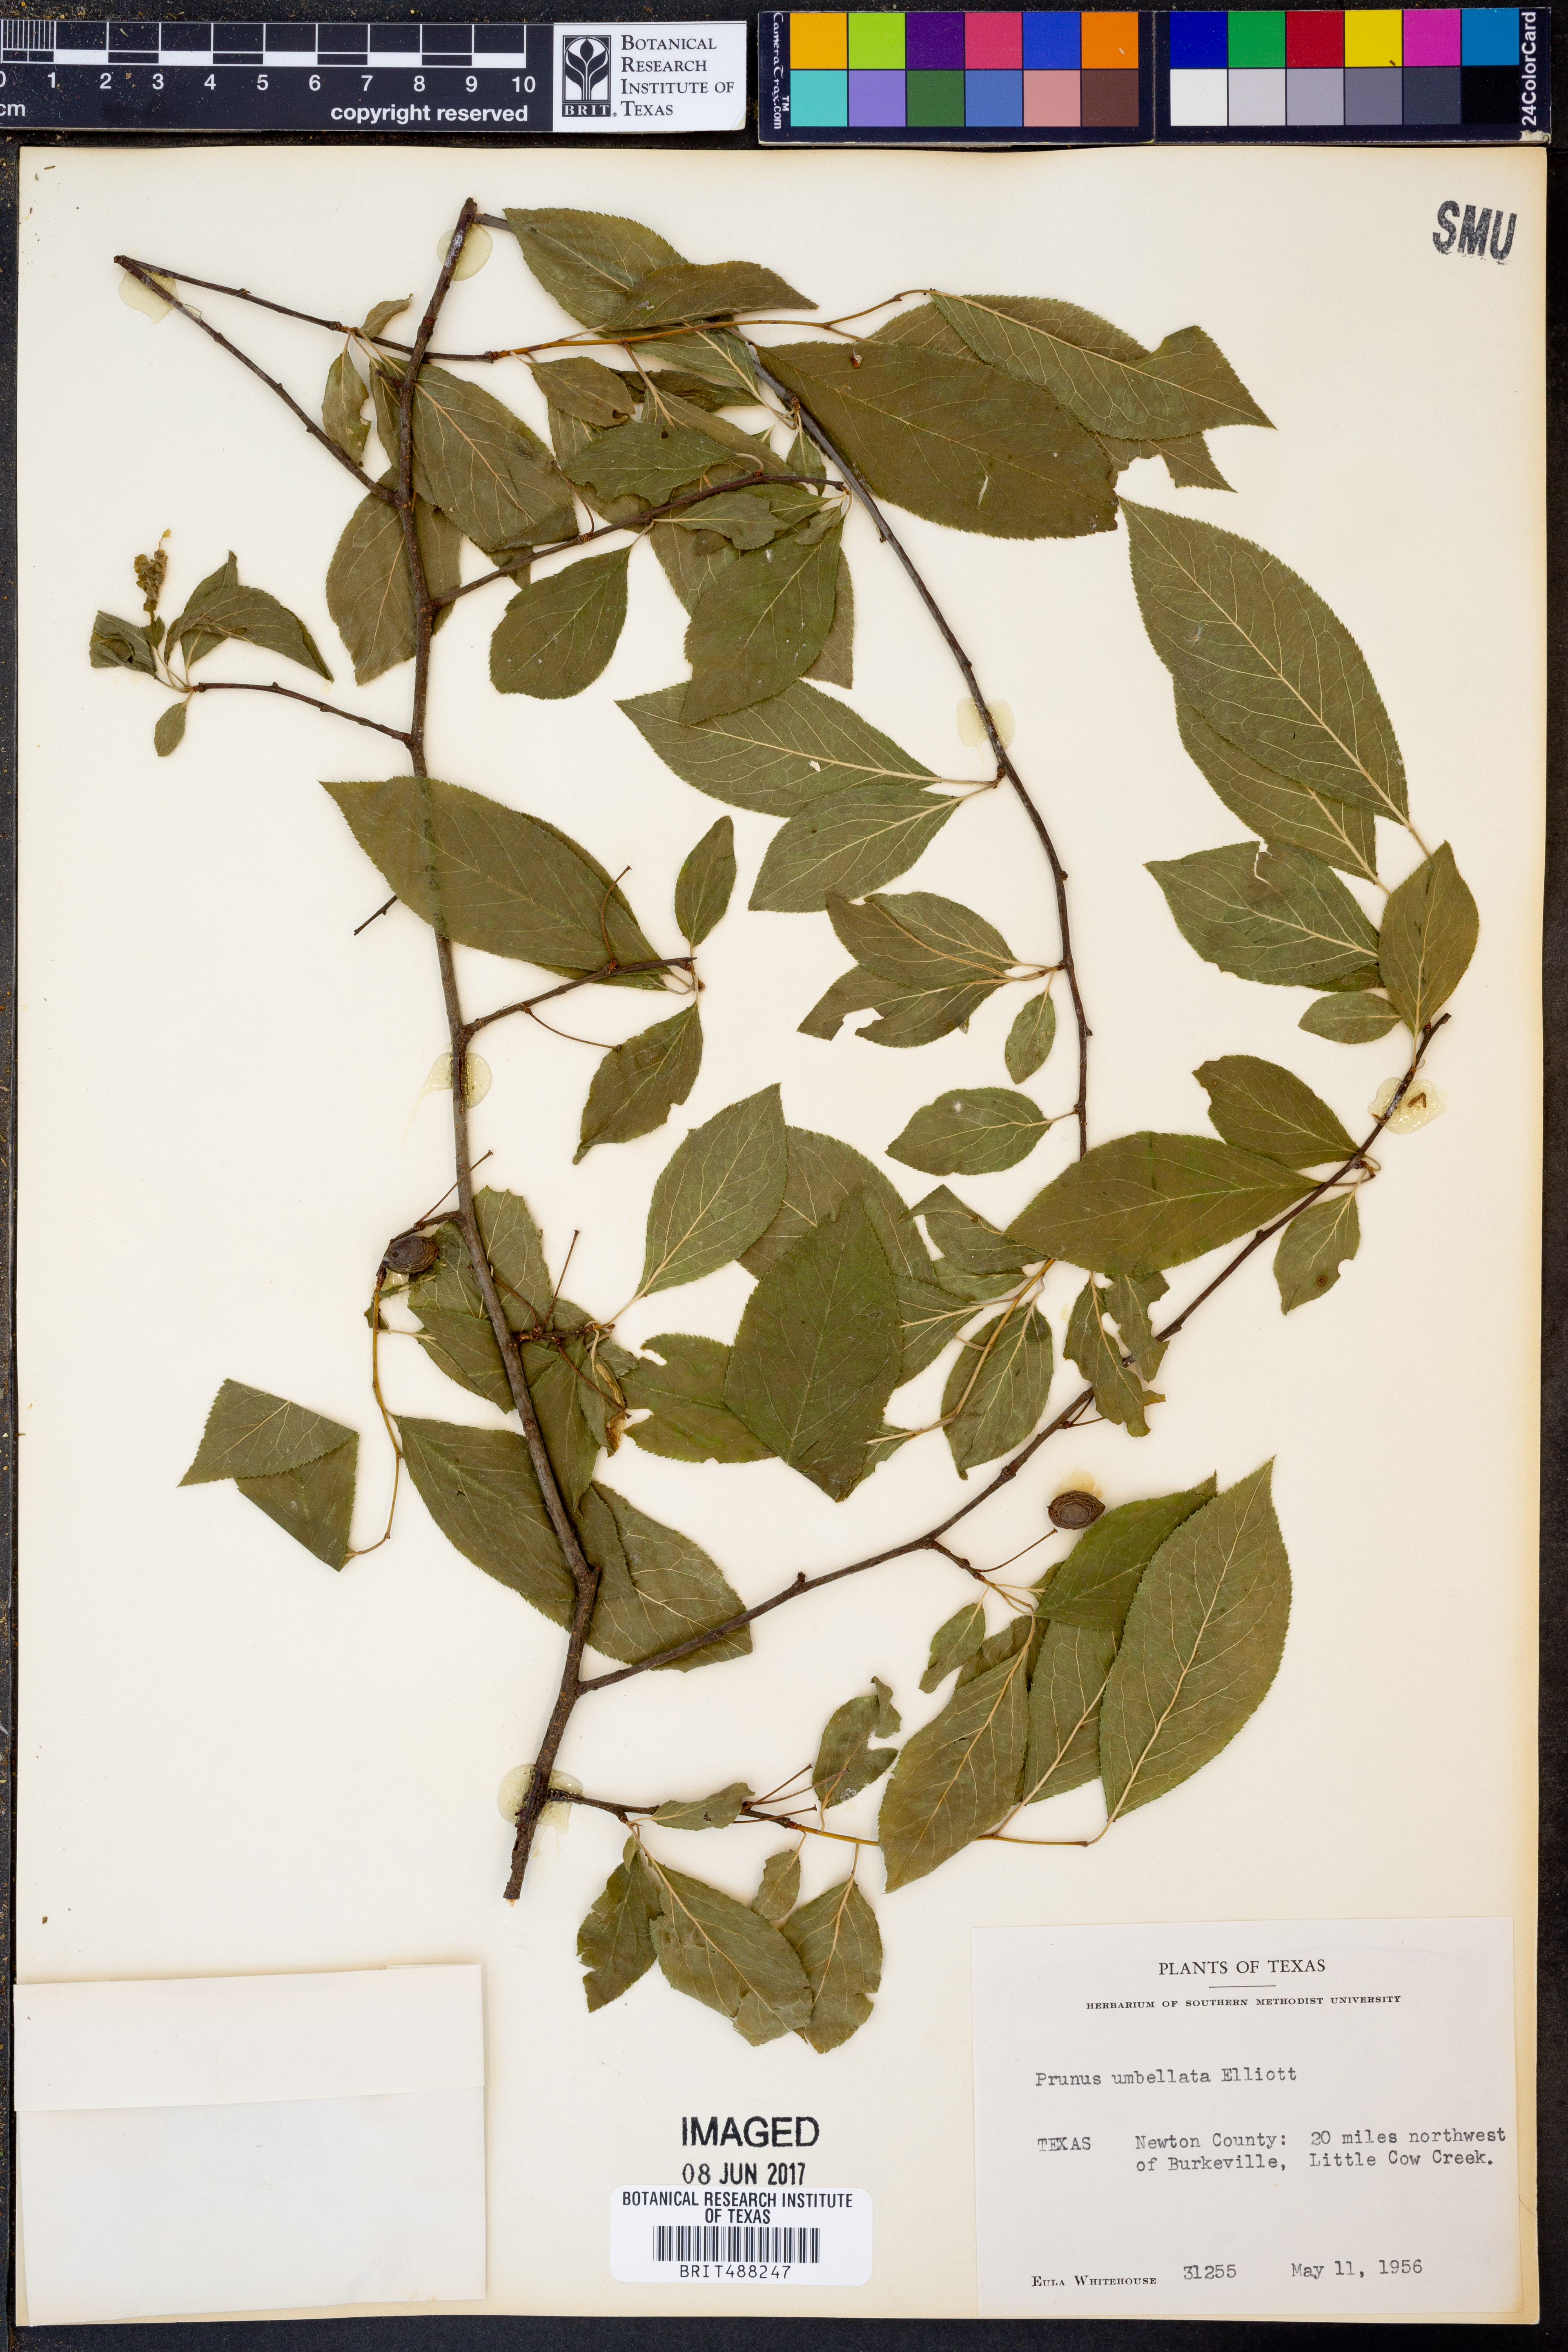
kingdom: Plantae
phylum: Tracheophyta
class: Magnoliopsida
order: Rosales
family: Rosaceae
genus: Prunus
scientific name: Prunus umbellata
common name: Allegheny plum
